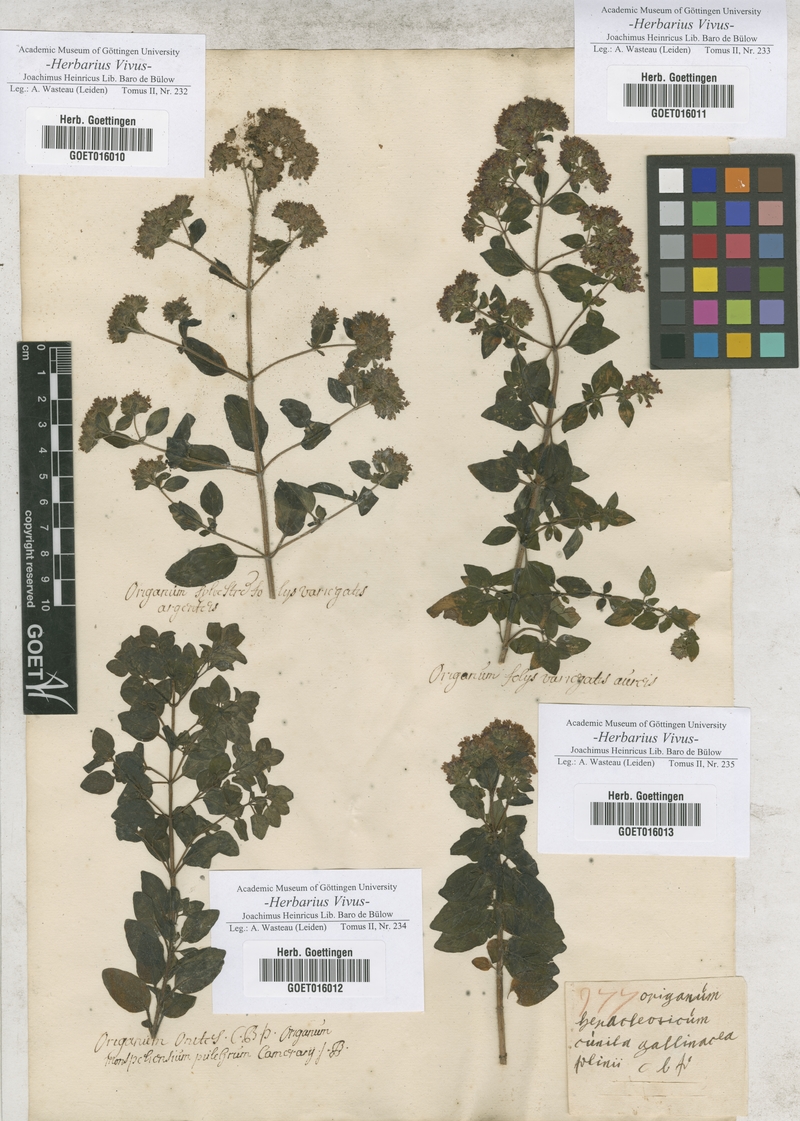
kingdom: Plantae
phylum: Tracheophyta
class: Magnoliopsida
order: Lamiales
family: Lamiaceae
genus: Origanum
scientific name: Origanum vulgare
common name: Wild marjoram
